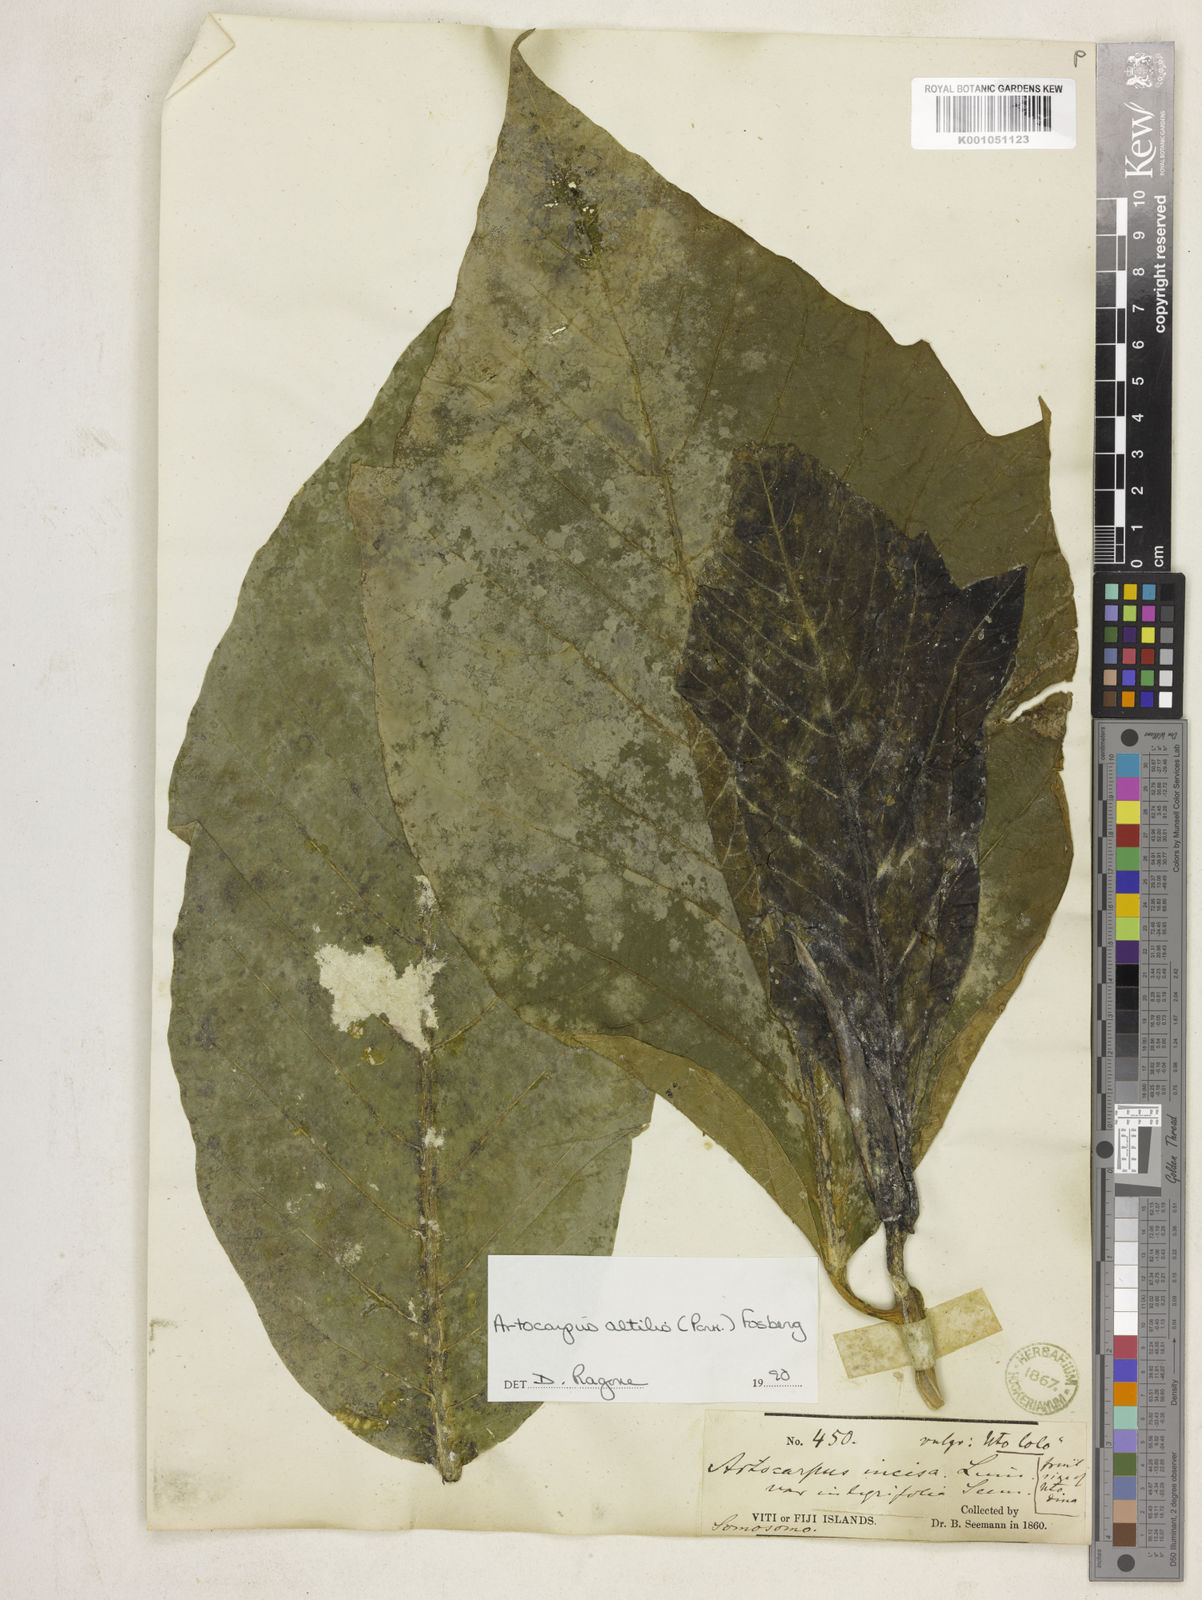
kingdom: Plantae
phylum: Tracheophyta
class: Magnoliopsida
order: Rosales
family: Moraceae
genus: Artocarpus
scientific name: Artocarpus altilis
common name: Breadfruit
